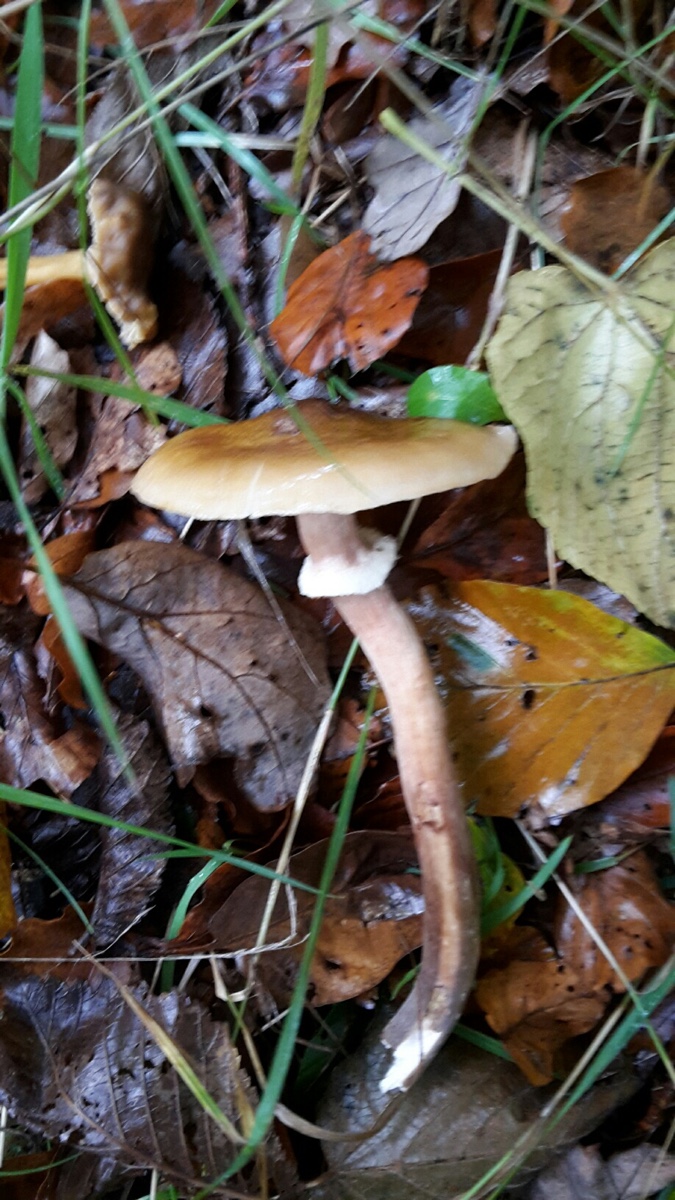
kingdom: Fungi
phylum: Basidiomycota
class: Agaricomycetes
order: Agaricales
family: Physalacriaceae
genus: Armillaria
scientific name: Armillaria mellea
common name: ægte honningsvamp
